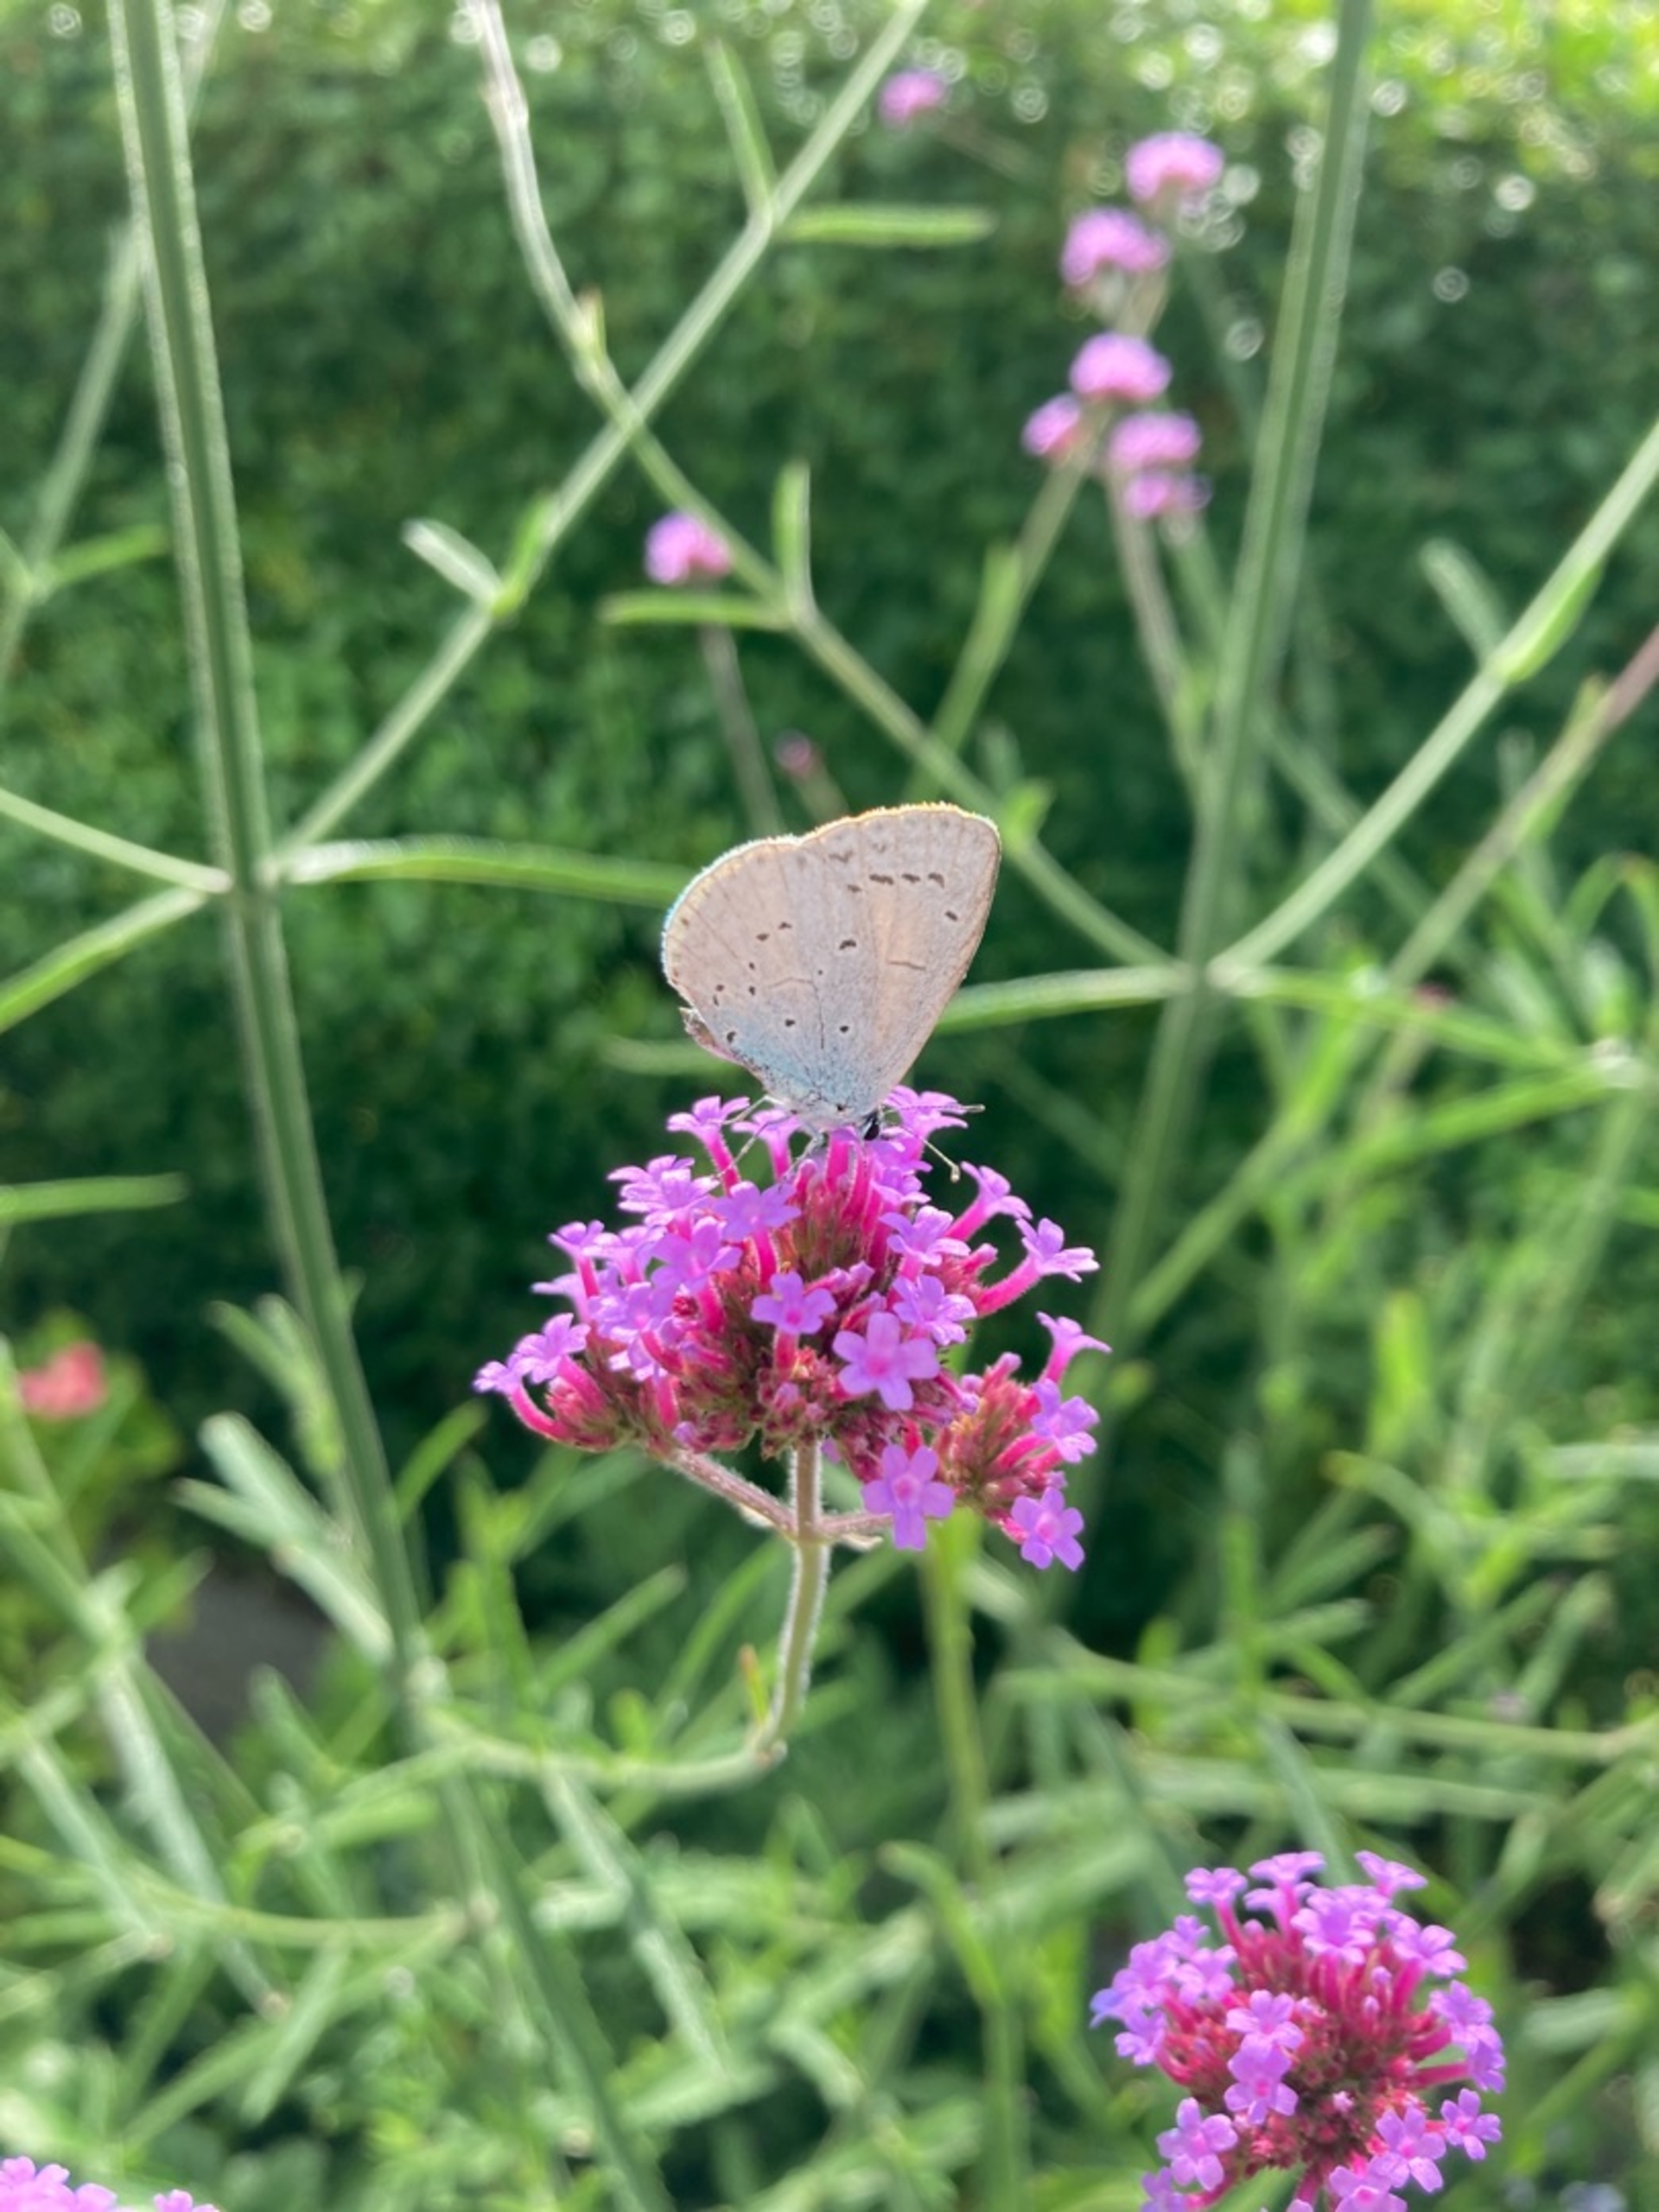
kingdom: Animalia
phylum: Arthropoda
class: Insecta
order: Lepidoptera
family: Lycaenidae
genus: Celastrina
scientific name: Celastrina argiolus
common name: Skovblåfugl
